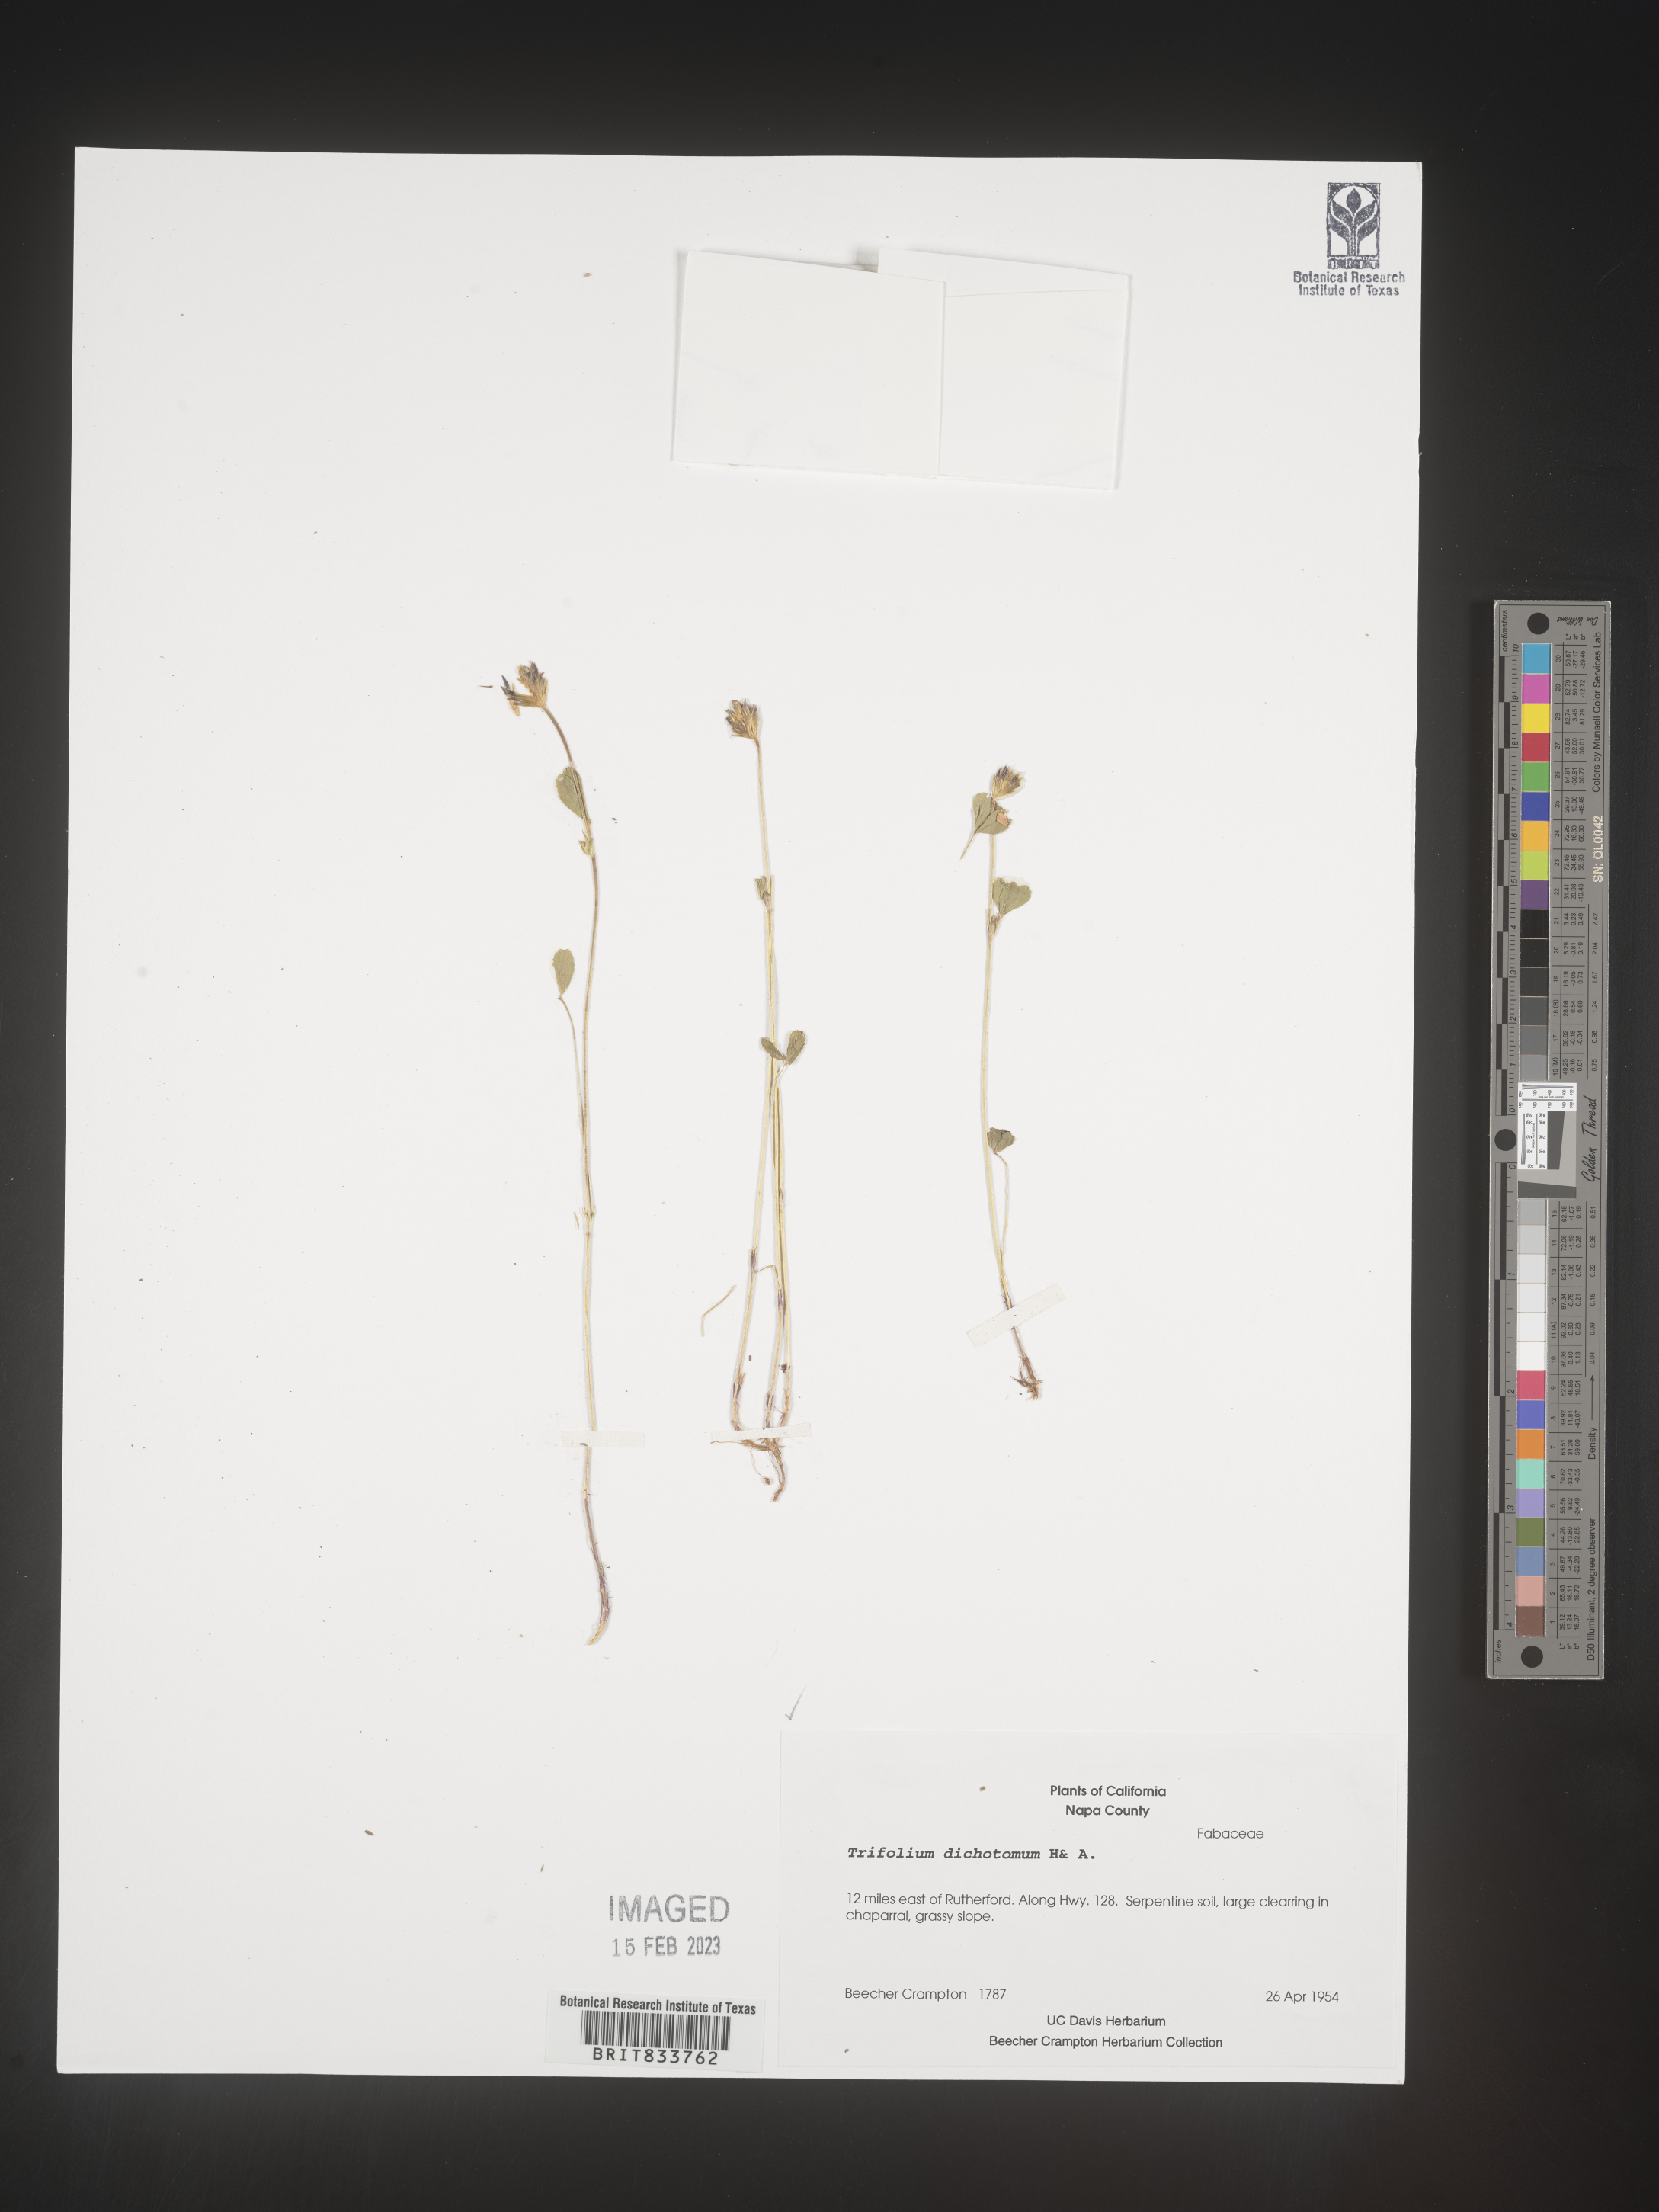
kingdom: Plantae
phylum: Tracheophyta
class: Magnoliopsida
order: Fabales
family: Fabaceae
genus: Trifolium
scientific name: Trifolium
